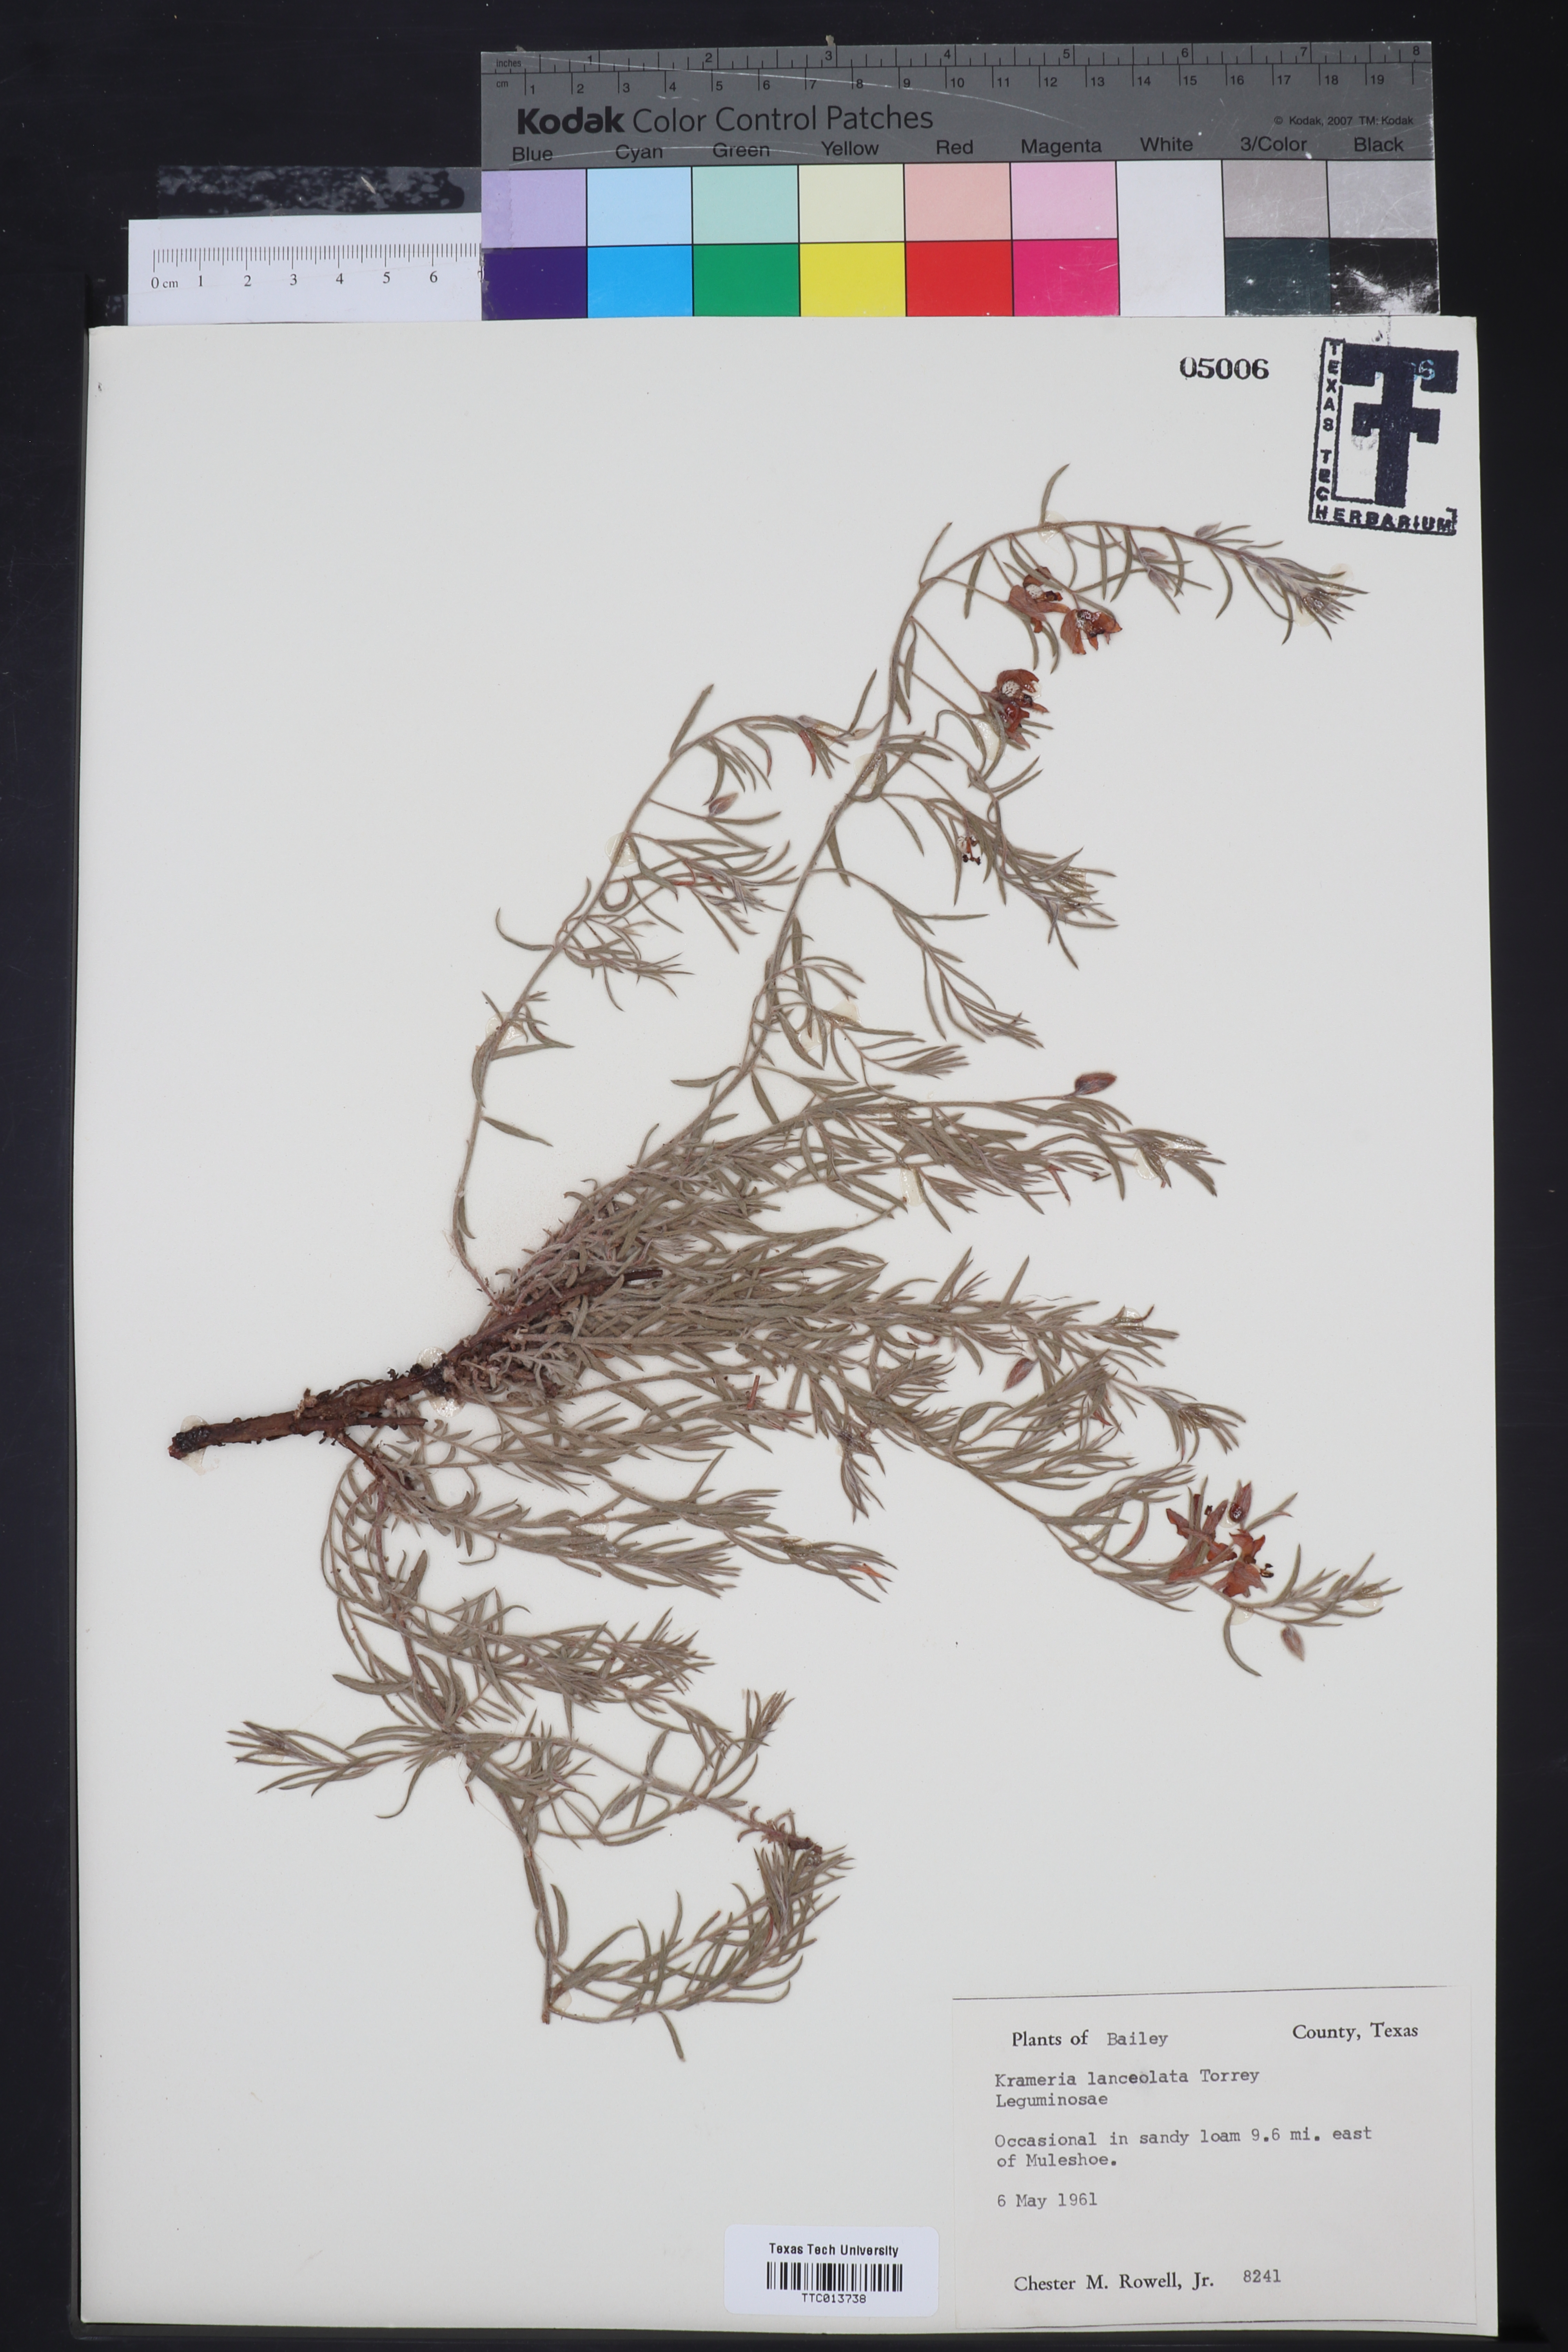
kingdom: Plantae
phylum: Tracheophyta
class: Magnoliopsida
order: Zygophyllales
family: Krameriaceae
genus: Krameria
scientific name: Krameria lanceolata
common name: Ratany
